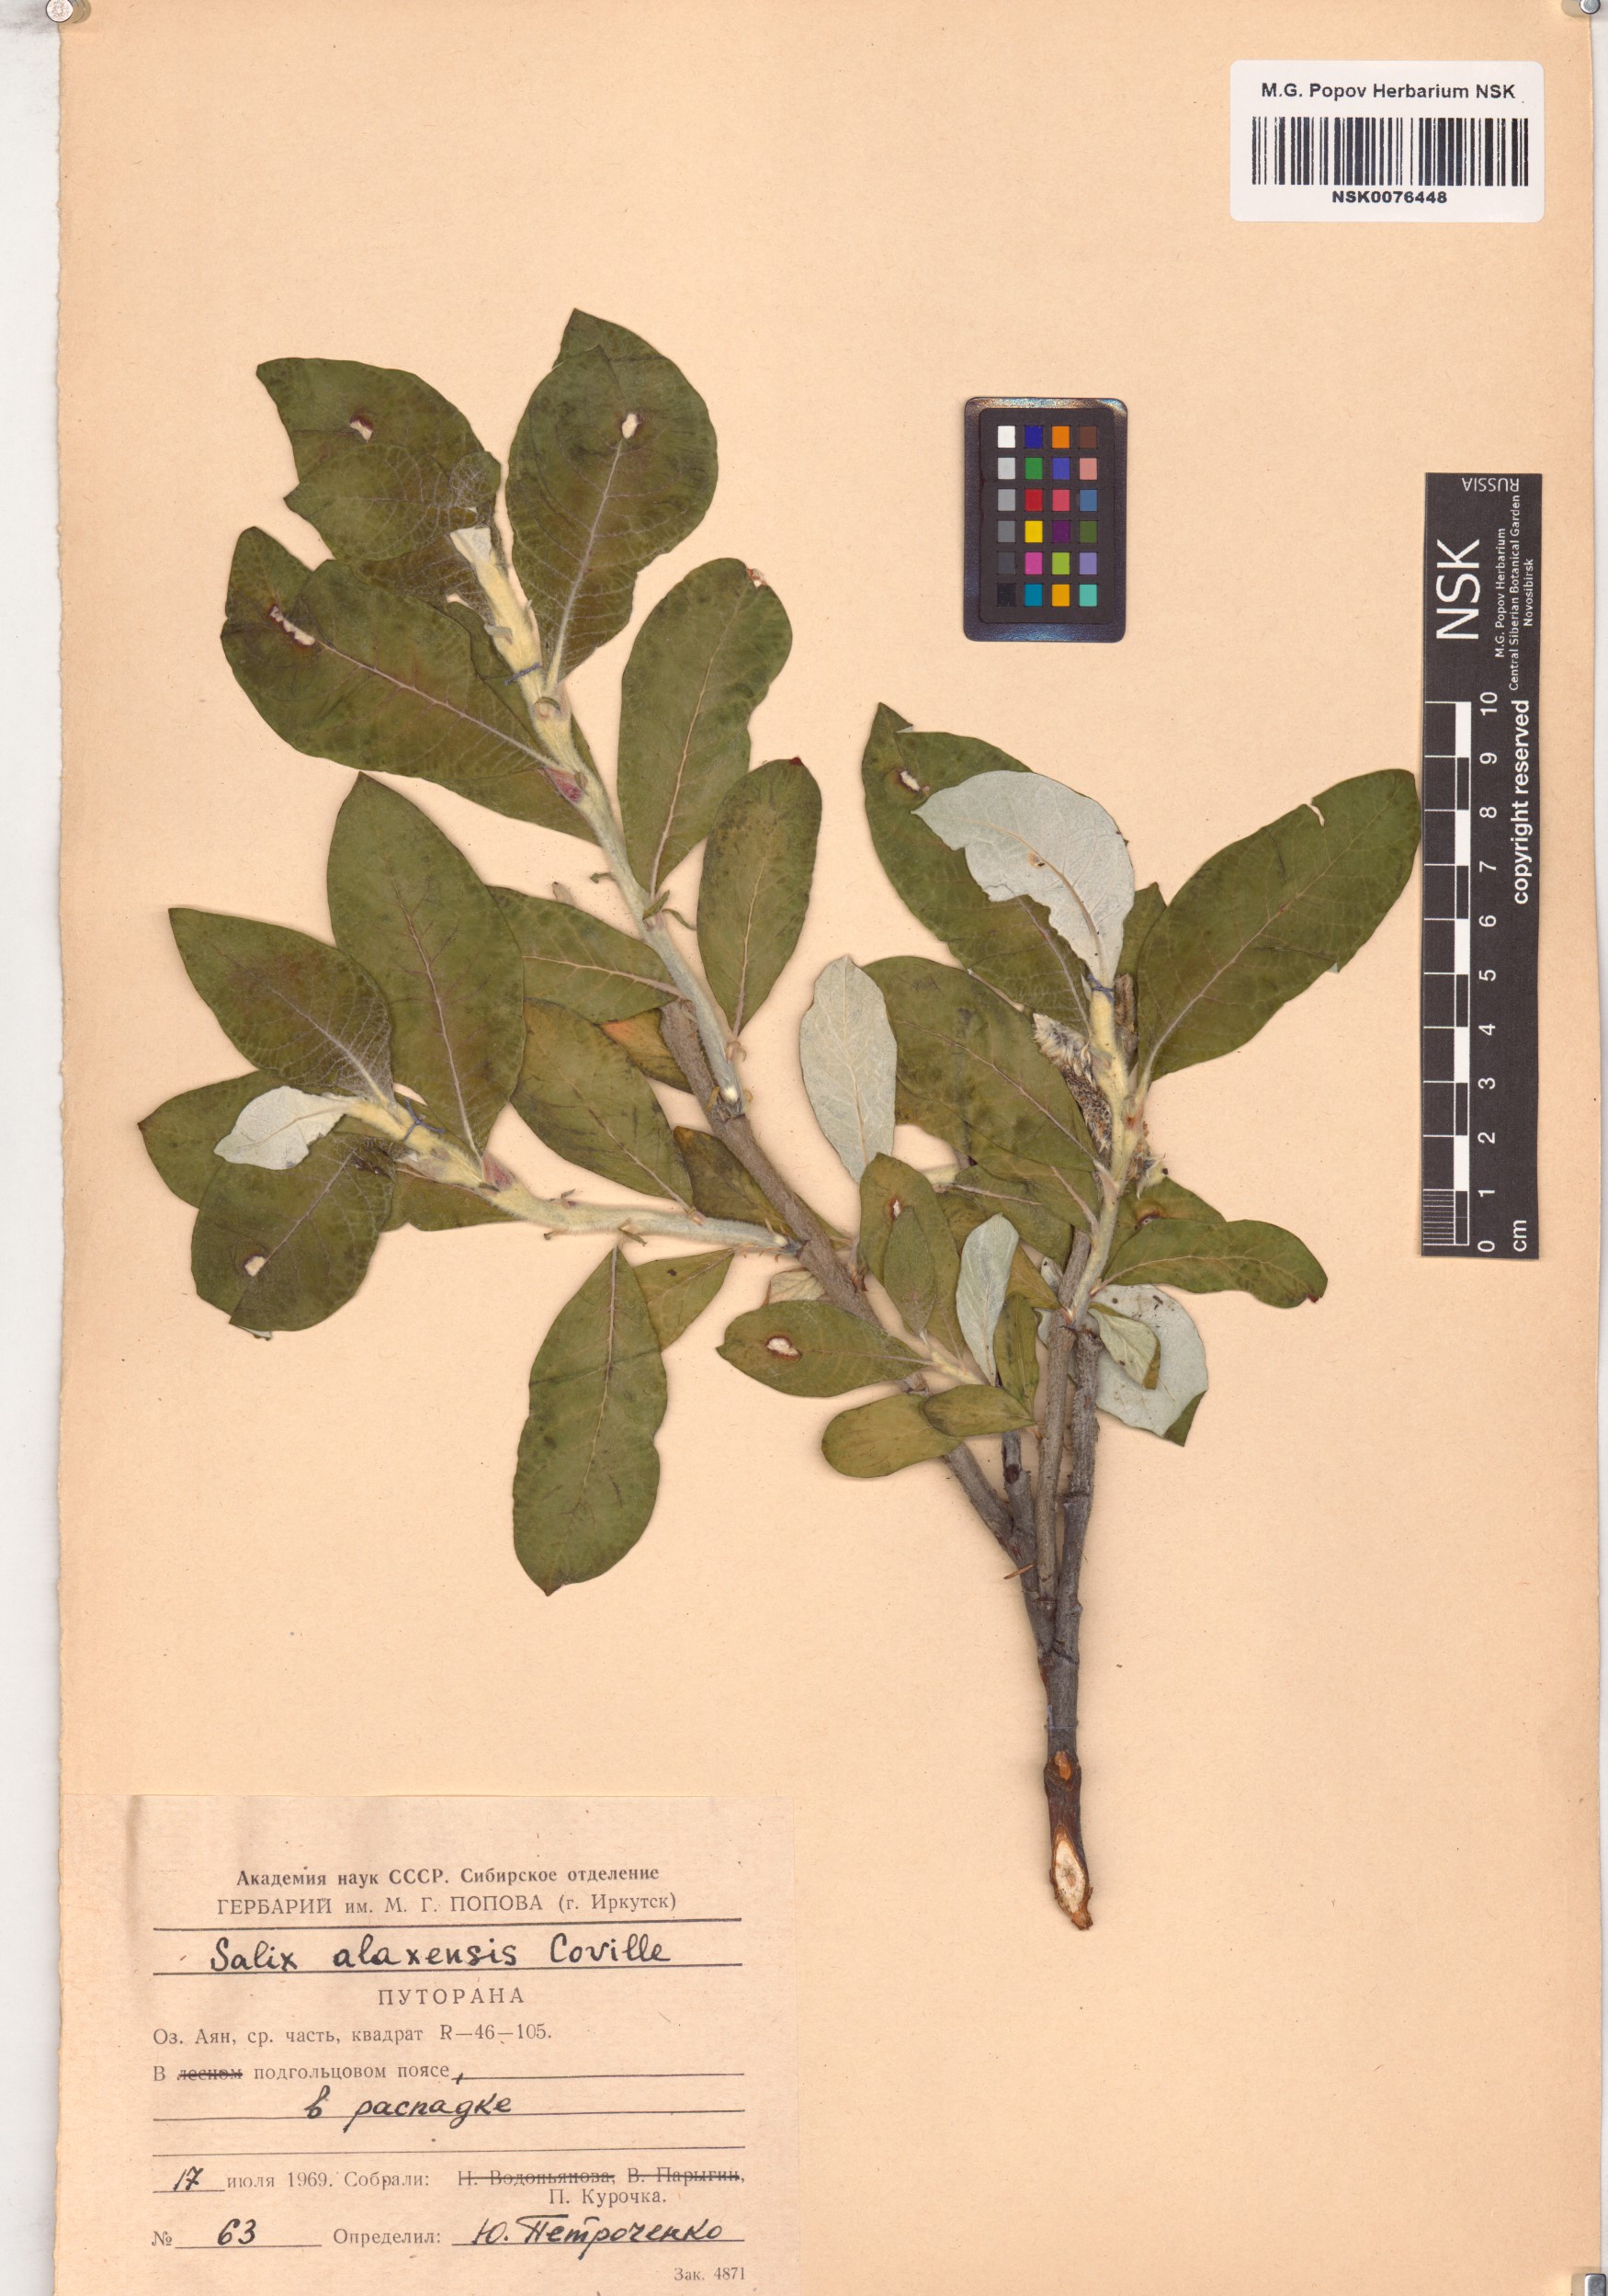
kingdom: Plantae
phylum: Tracheophyta
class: Magnoliopsida
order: Malpighiales
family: Salicaceae
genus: Salix
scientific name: Salix alaxensis
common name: Feltleaf willow
